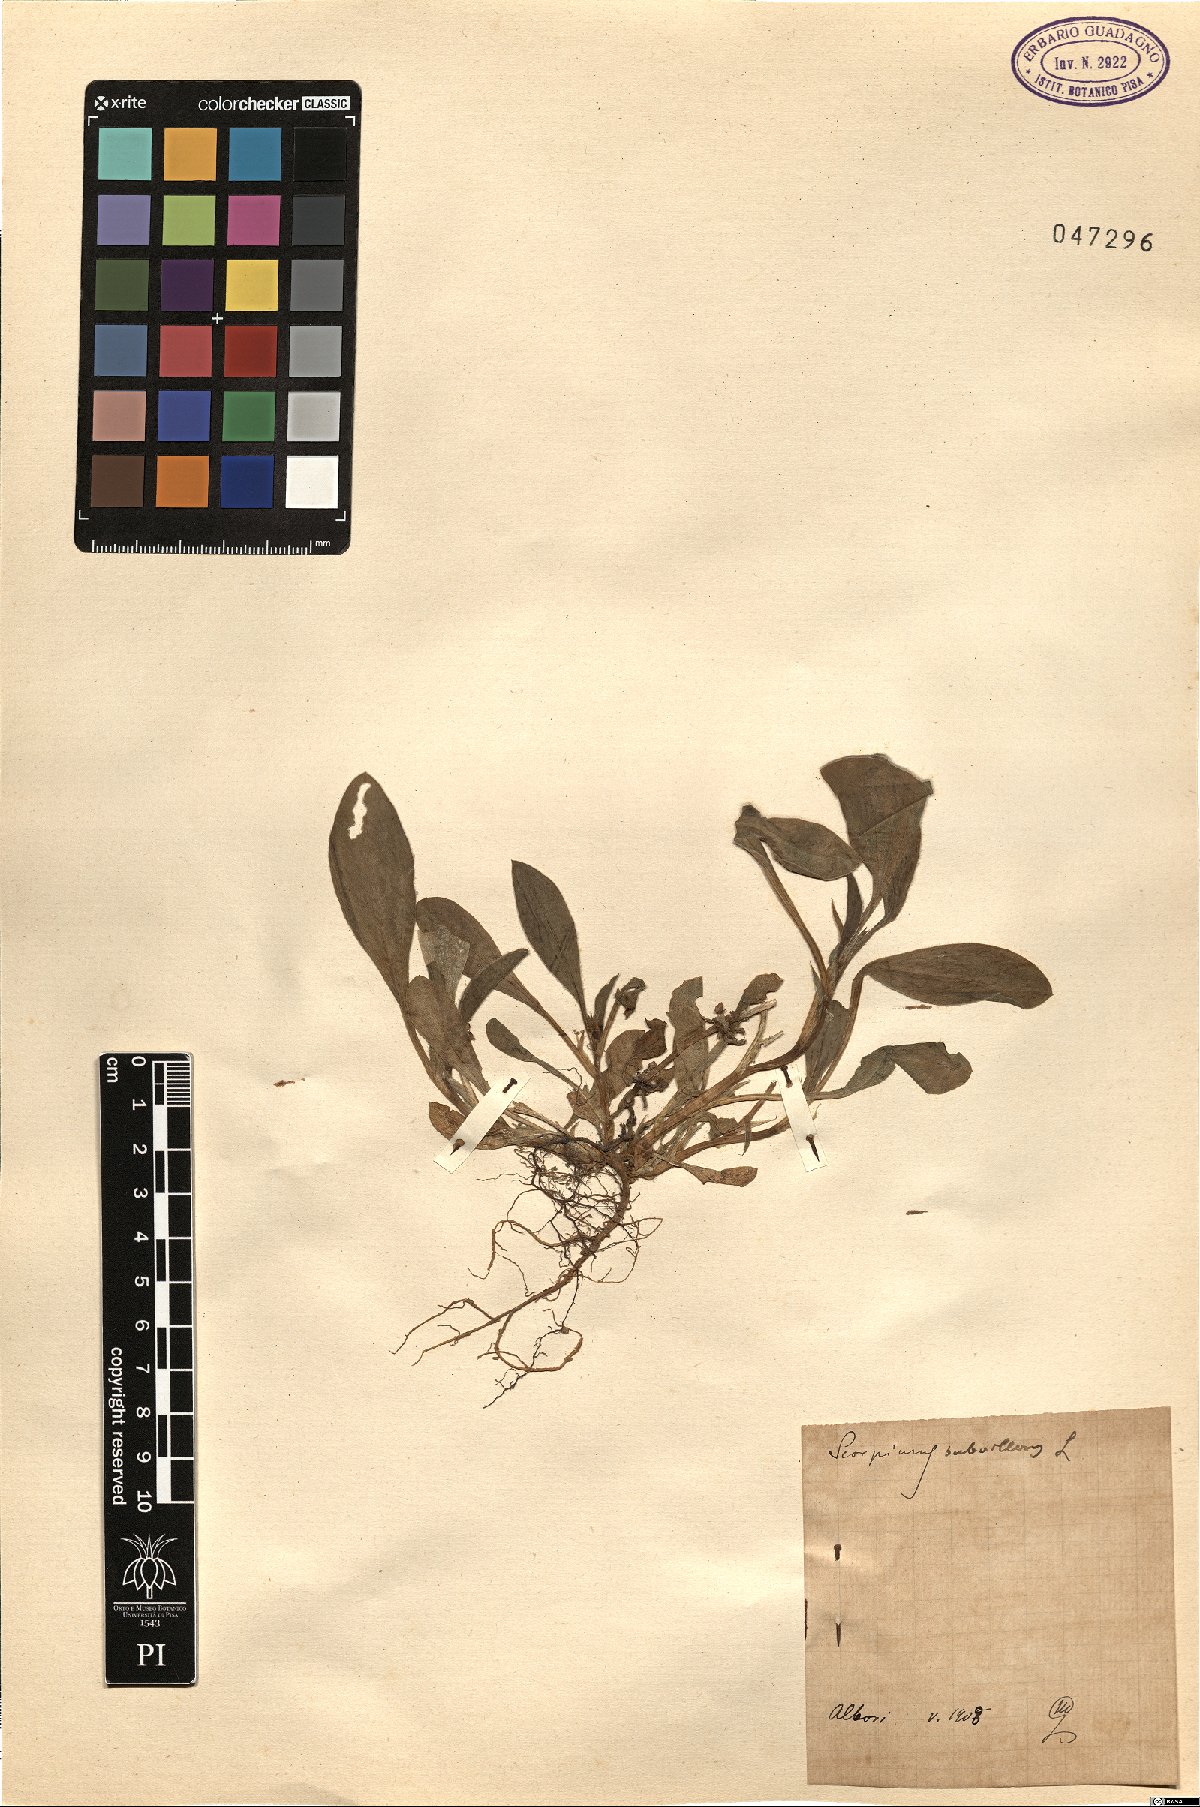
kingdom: Plantae
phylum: Tracheophyta
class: Magnoliopsida
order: Fabales
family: Fabaceae
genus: Scorpiurus
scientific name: Scorpiurus muricatus
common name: Caterpillar-plant
